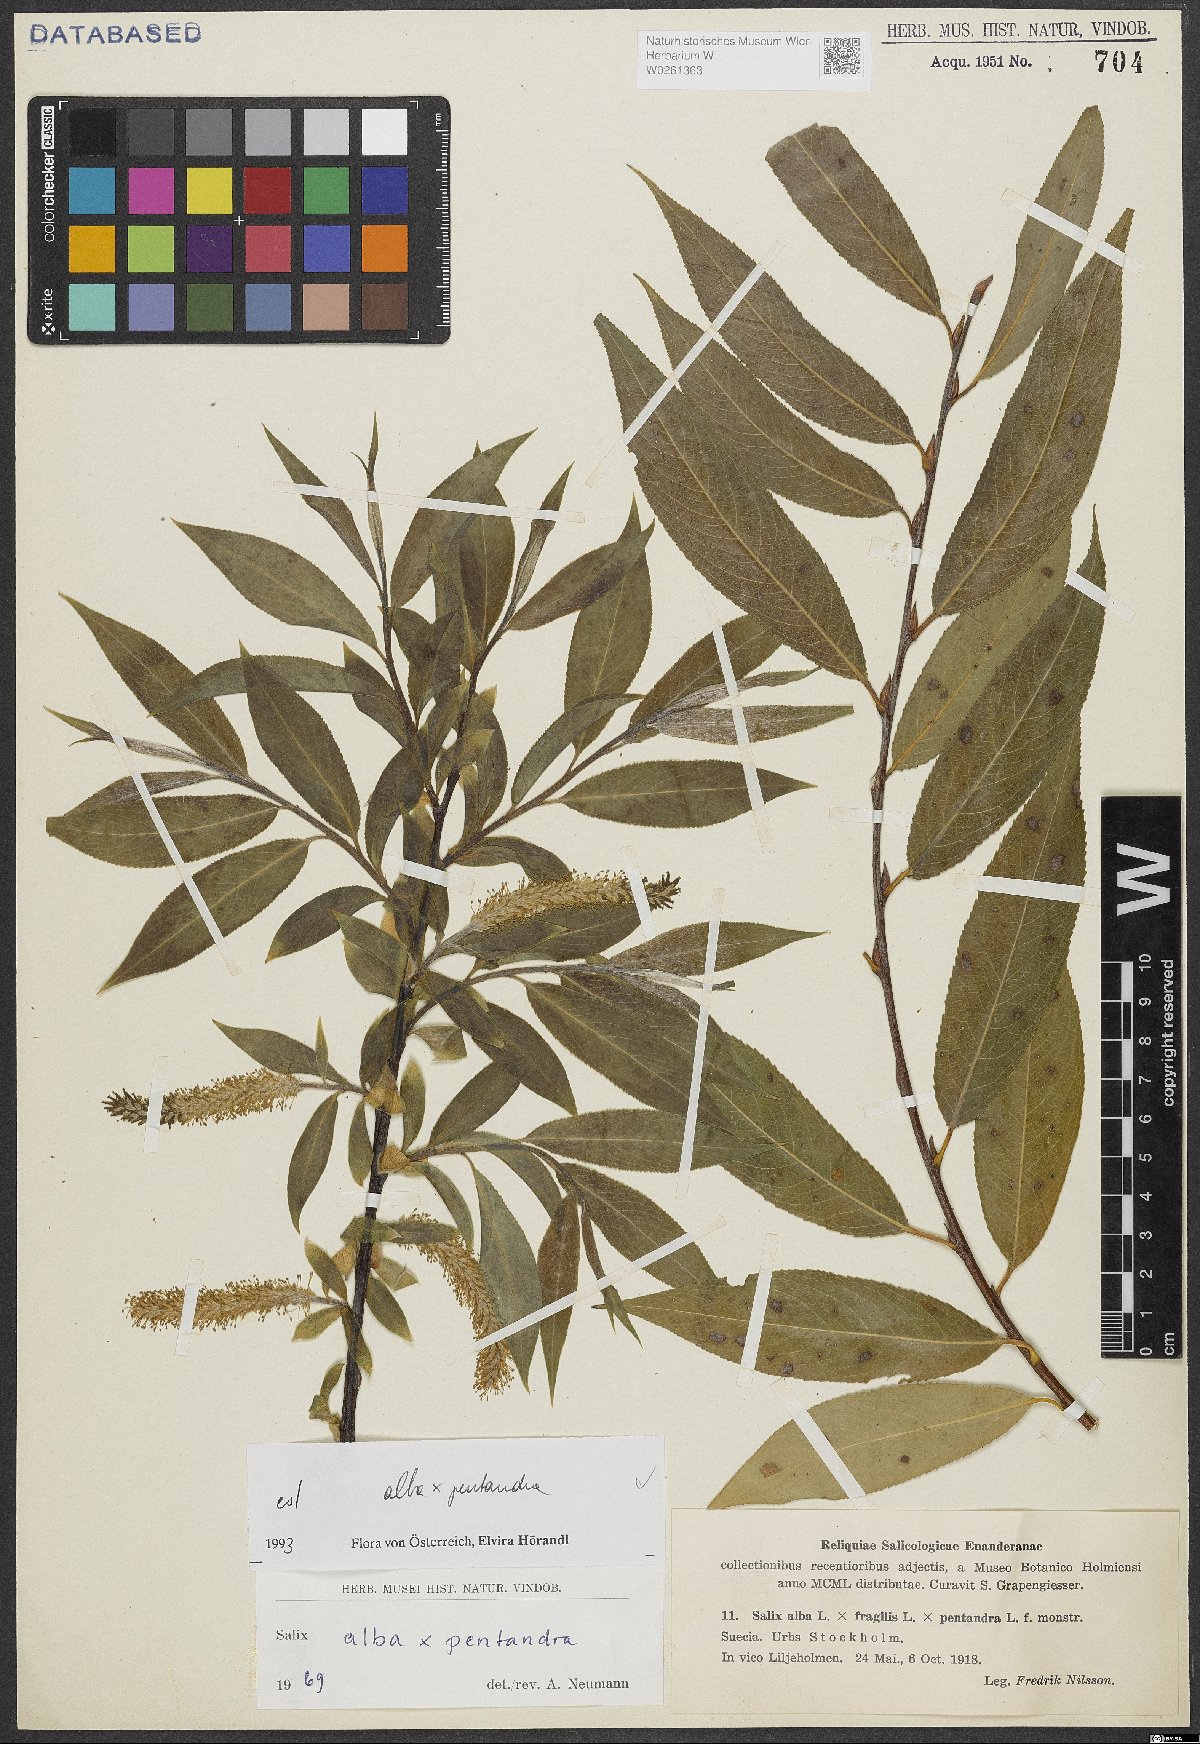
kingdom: Plantae
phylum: Tracheophyta
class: Magnoliopsida
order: Malpighiales
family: Salicaceae
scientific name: Salicaceae
